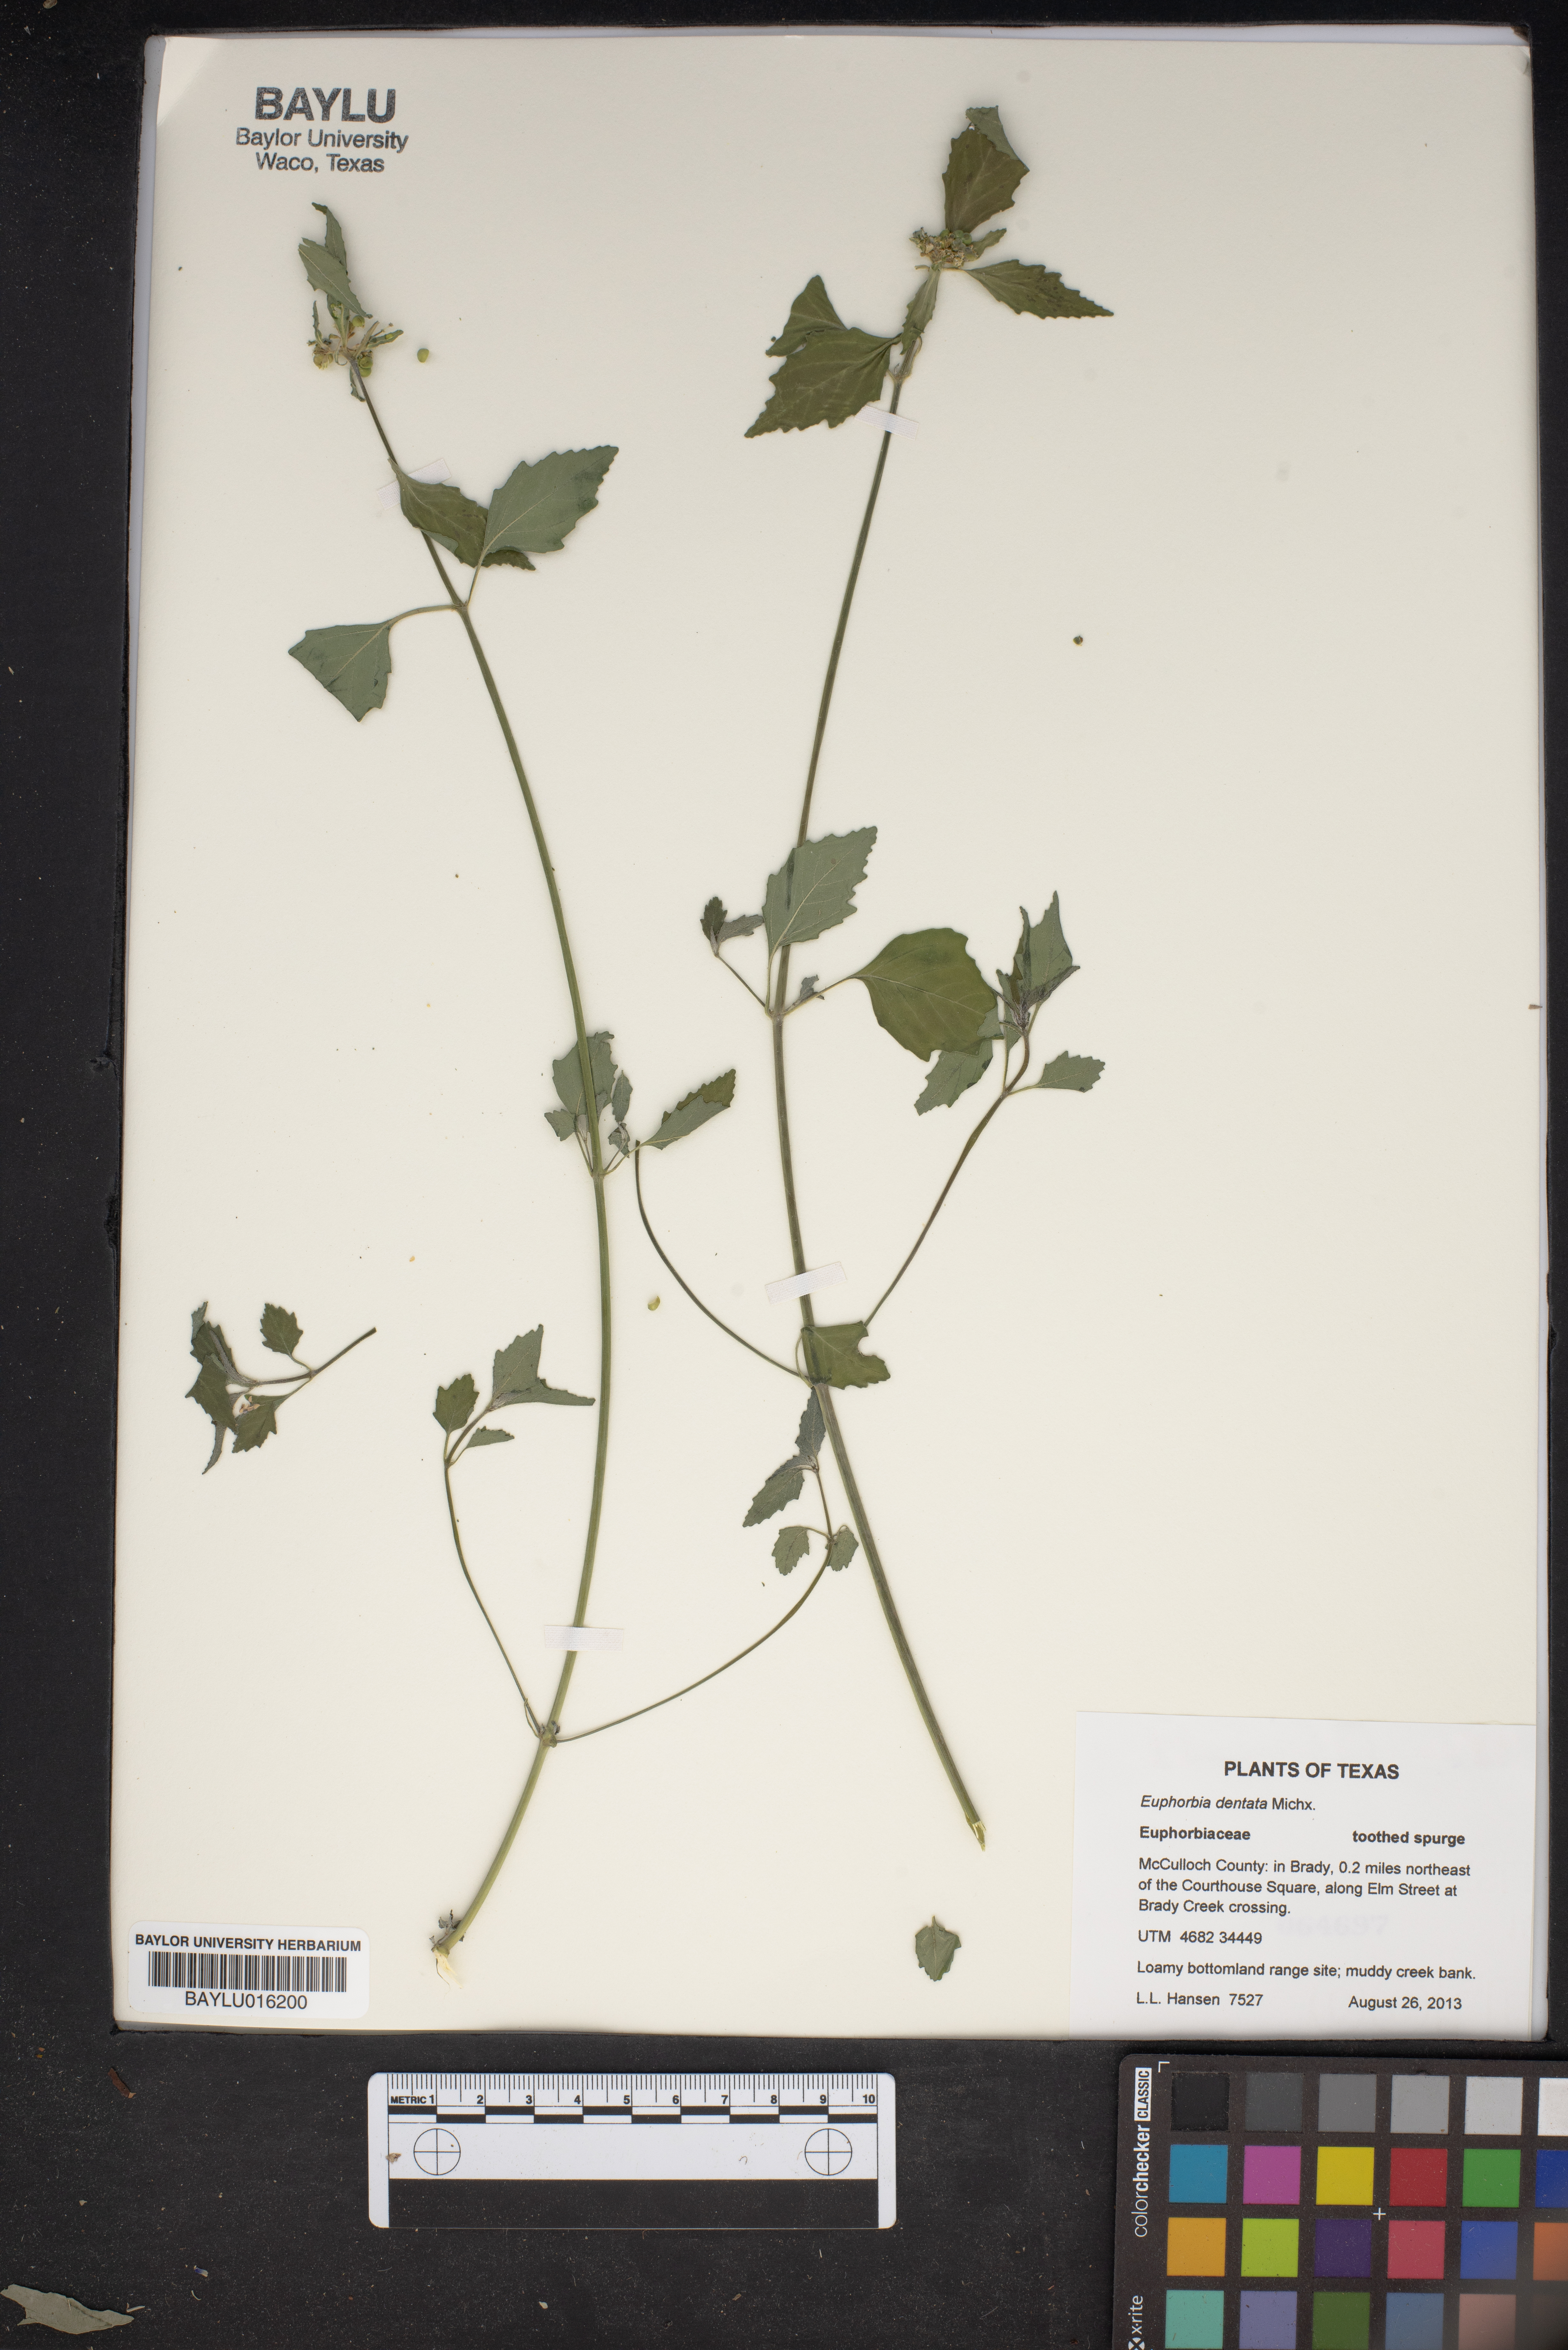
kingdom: Plantae
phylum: Tracheophyta
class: Magnoliopsida
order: Malpighiales
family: Euphorbiaceae
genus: Euphorbia
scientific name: Euphorbia dentata
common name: Dentate spurge
